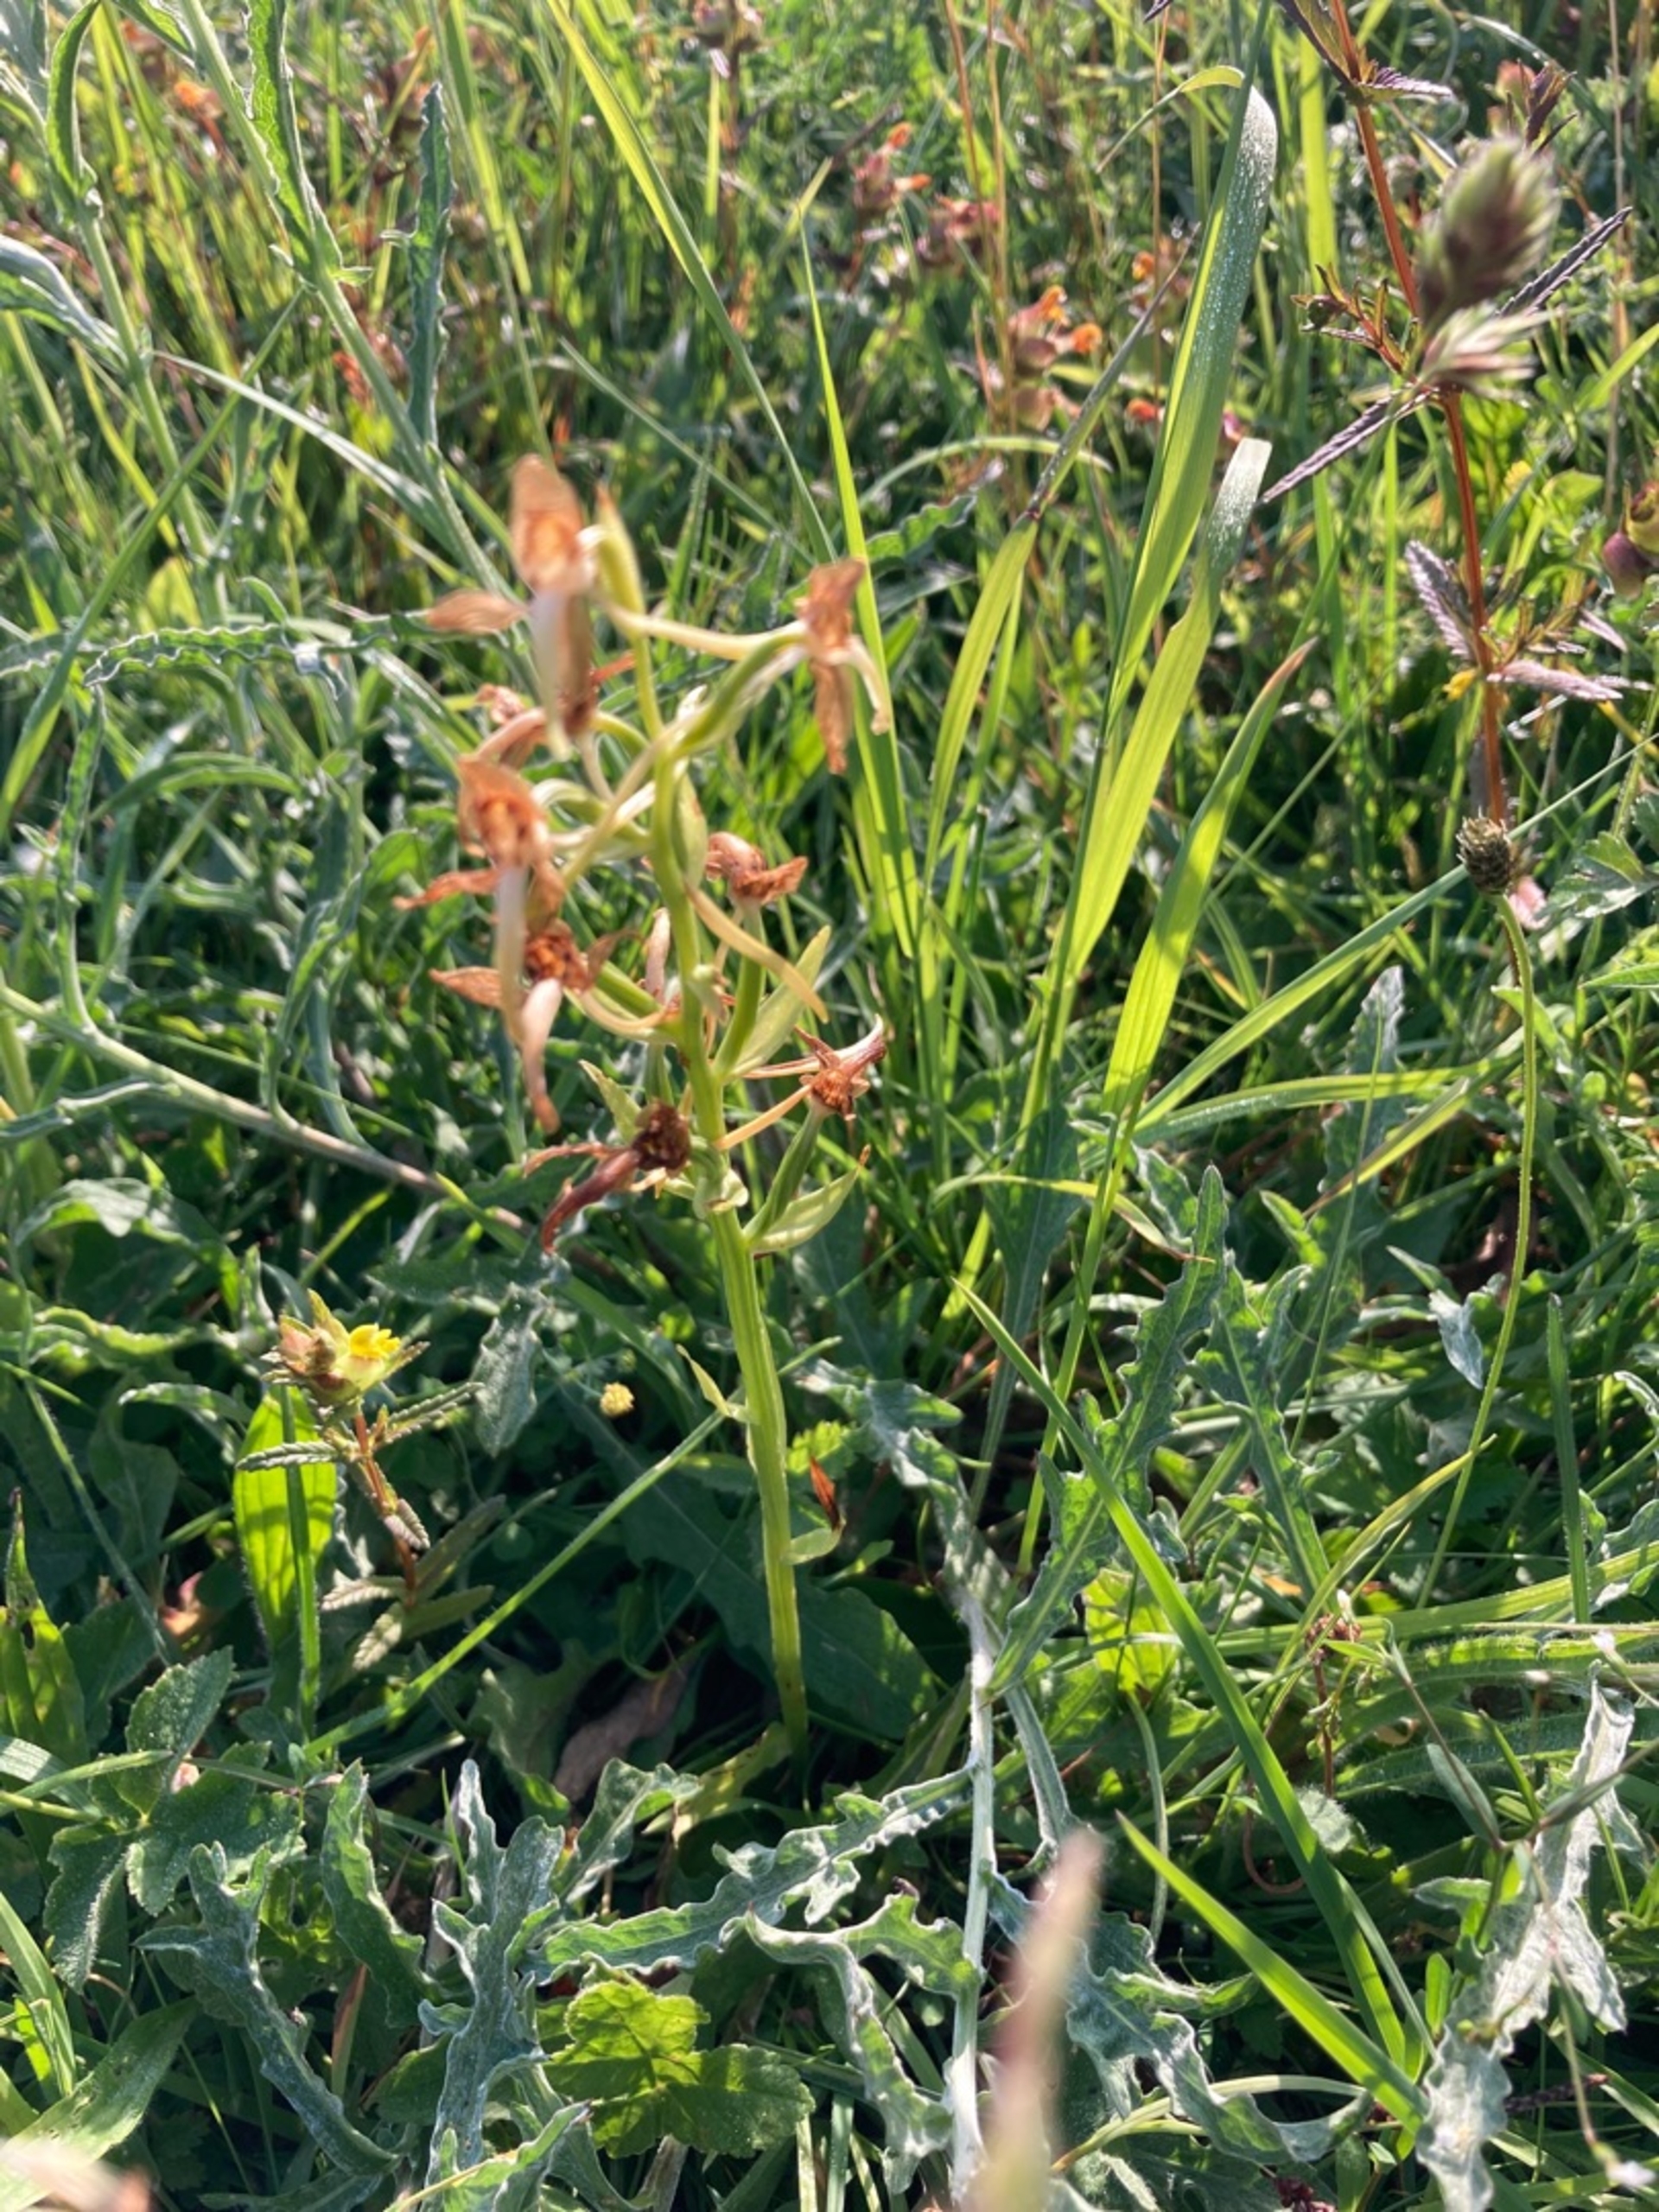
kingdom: Plantae
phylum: Tracheophyta
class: Liliopsida
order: Asparagales
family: Orchidaceae
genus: Platanthera
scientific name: Platanthera chlorantha
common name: Skov-gøgelilje
